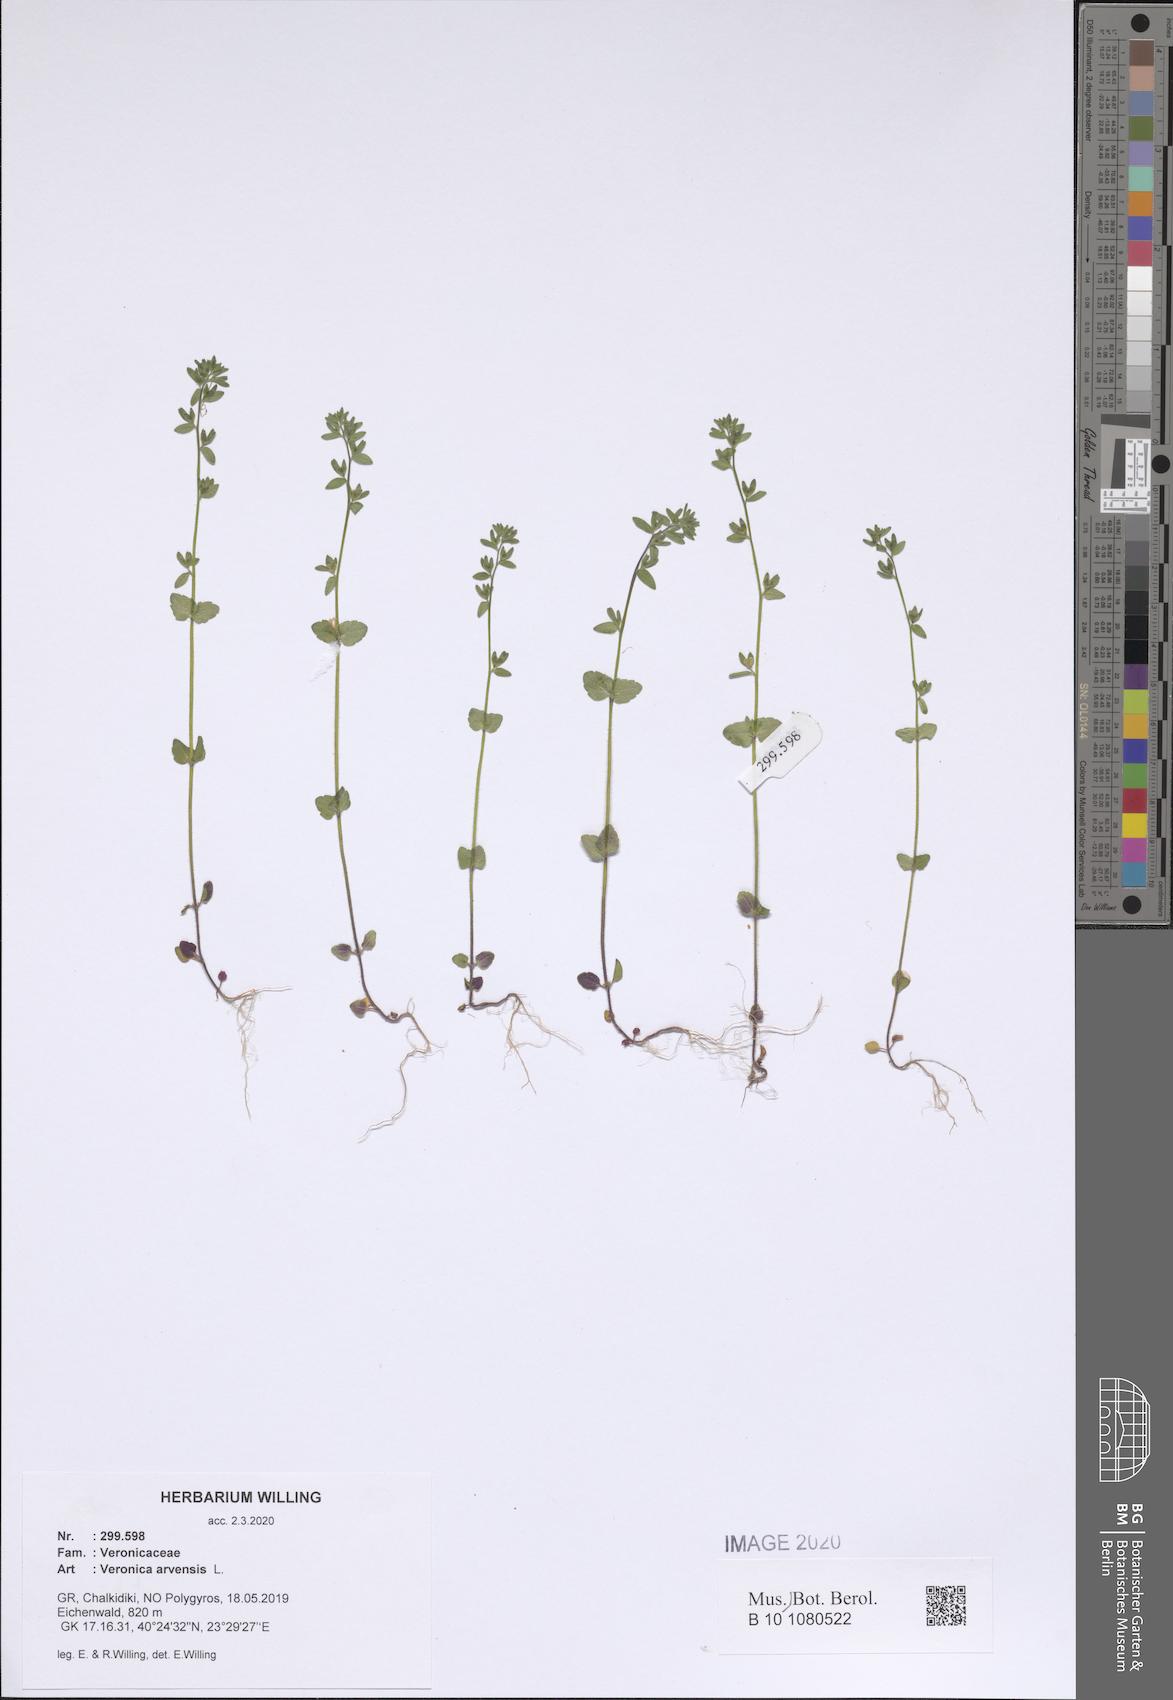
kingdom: Plantae
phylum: Tracheophyta
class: Magnoliopsida
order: Lamiales
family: Plantaginaceae
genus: Veronica
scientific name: Veronica arvensis
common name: Corn speedwell
